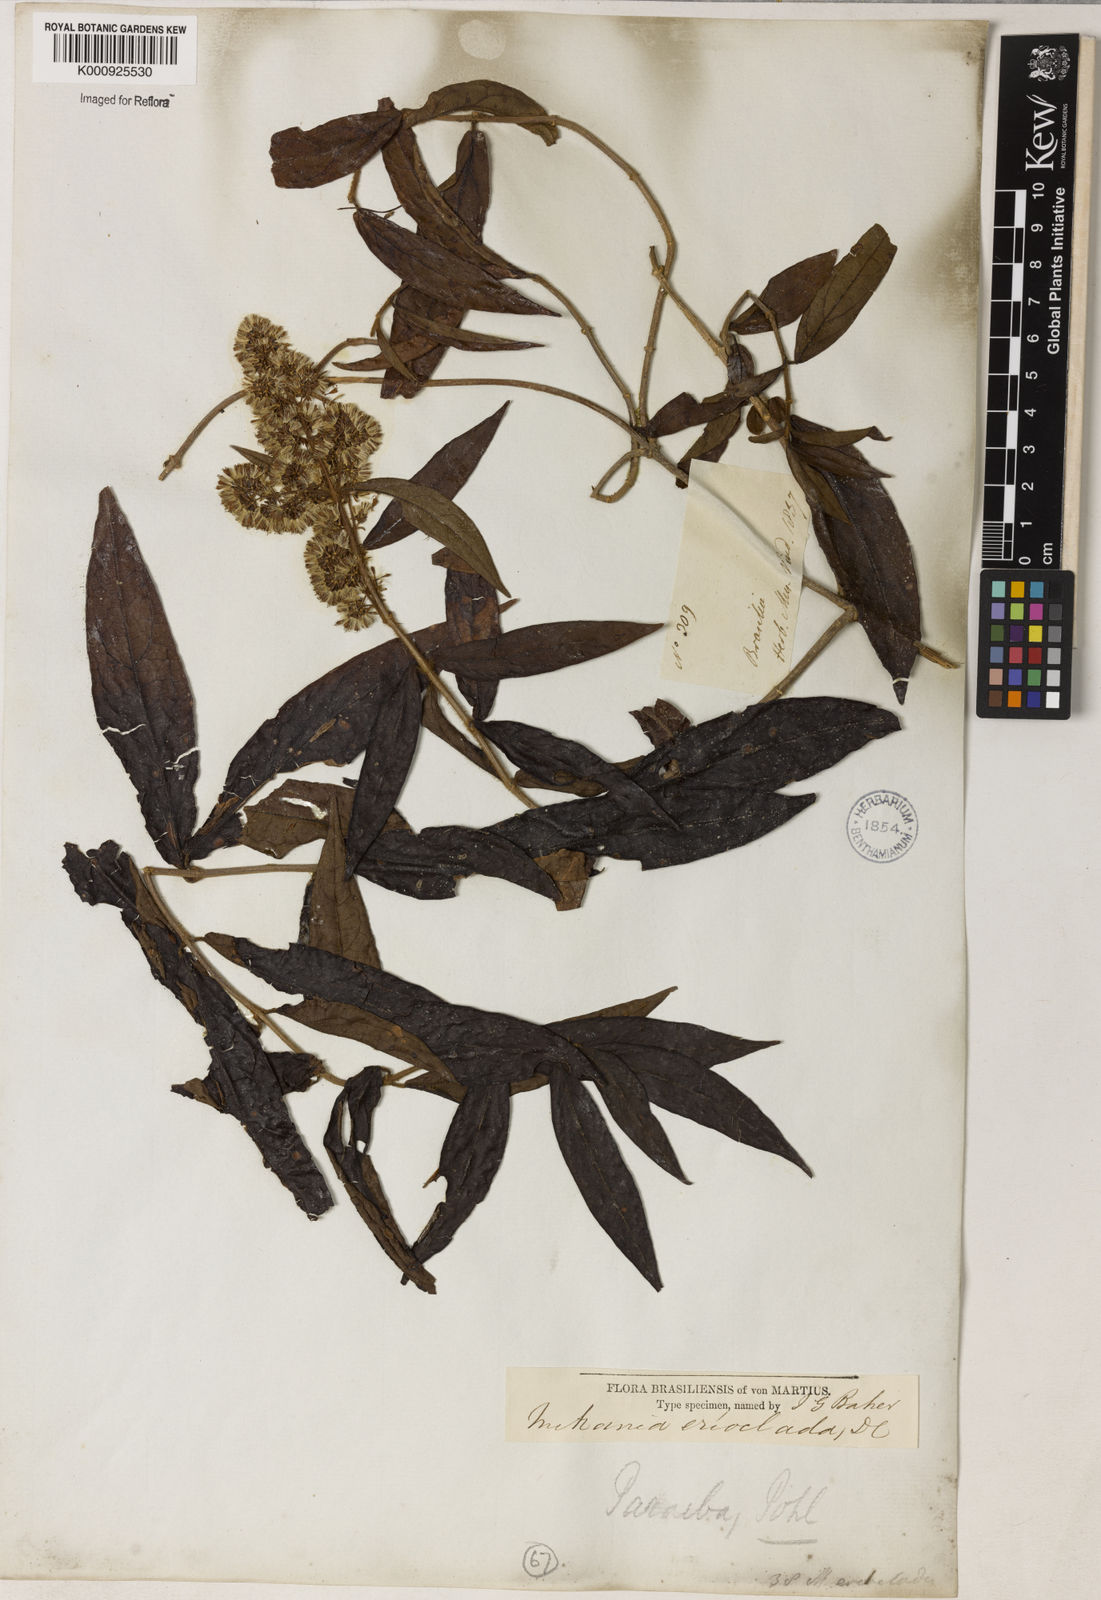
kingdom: Plantae
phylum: Tracheophyta
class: Magnoliopsida
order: Asterales
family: Asteraceae
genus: Mikania
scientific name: Mikania erioclada
